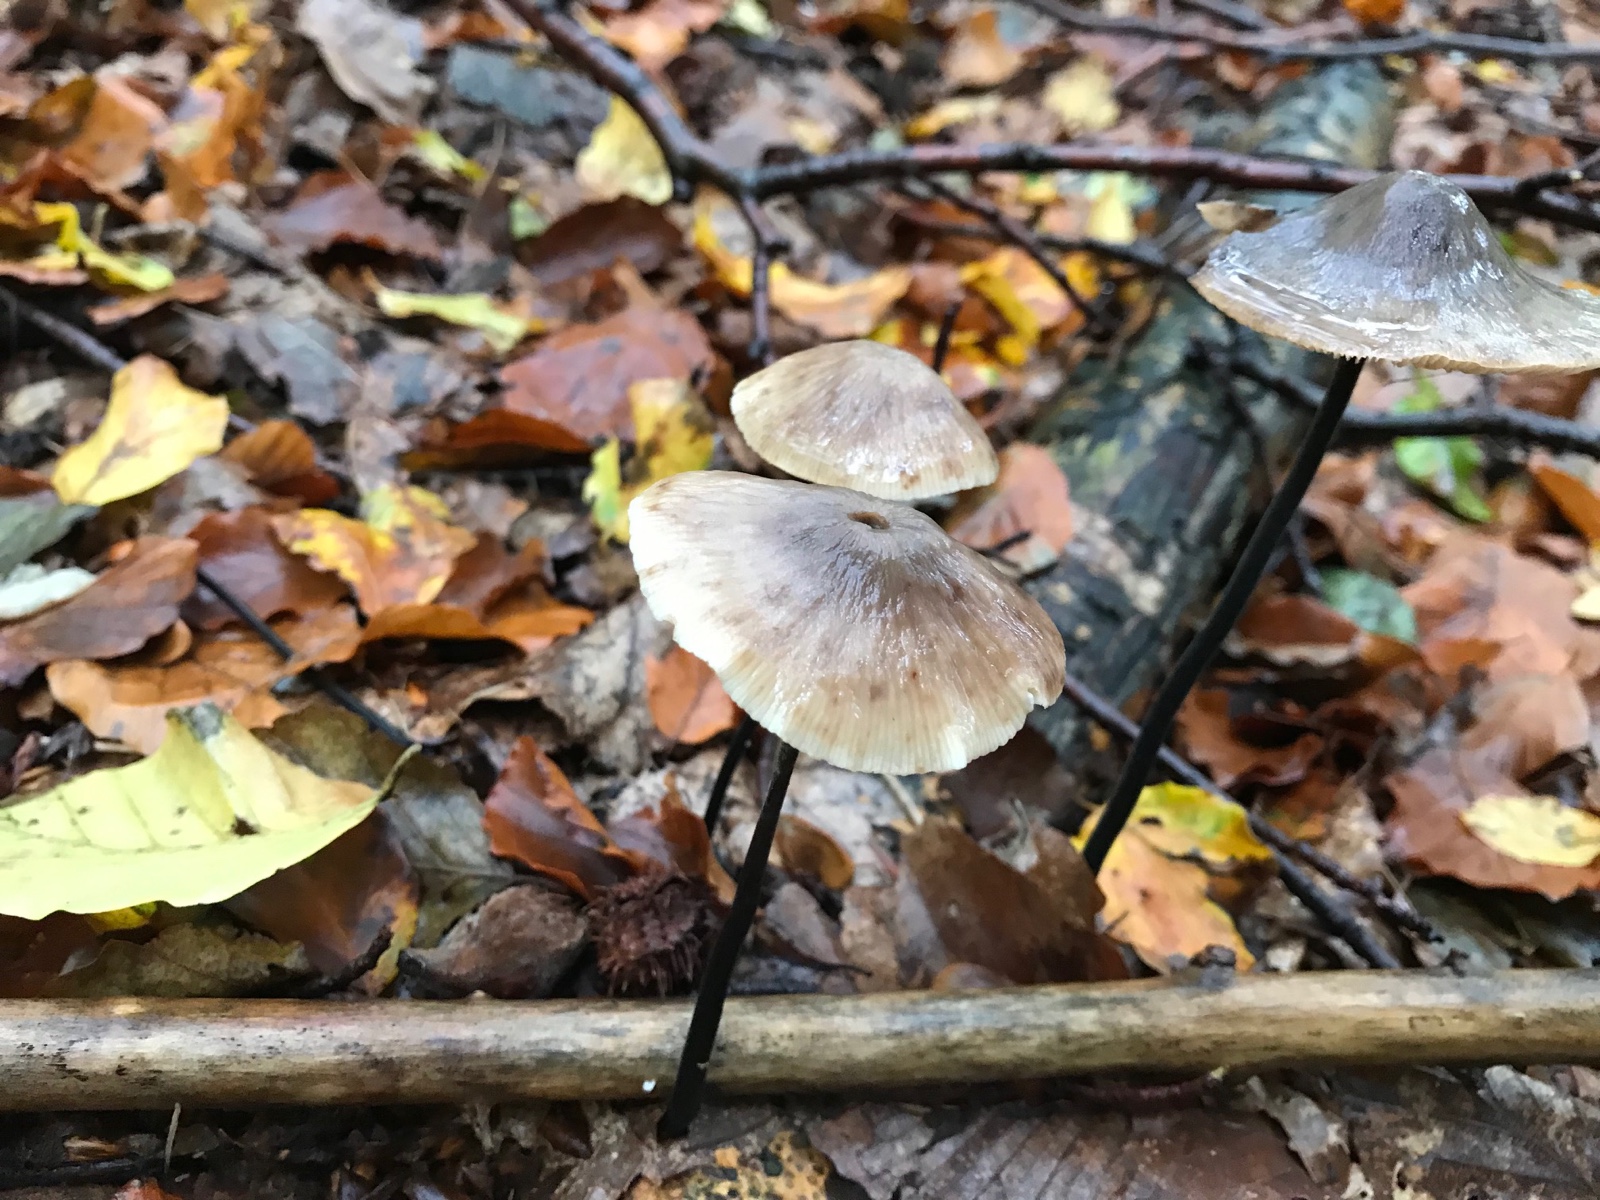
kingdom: Fungi
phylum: Basidiomycota
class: Agaricomycetes
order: Agaricales
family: Omphalotaceae
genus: Mycetinis
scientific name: Mycetinis alliaceus
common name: stor løghat
